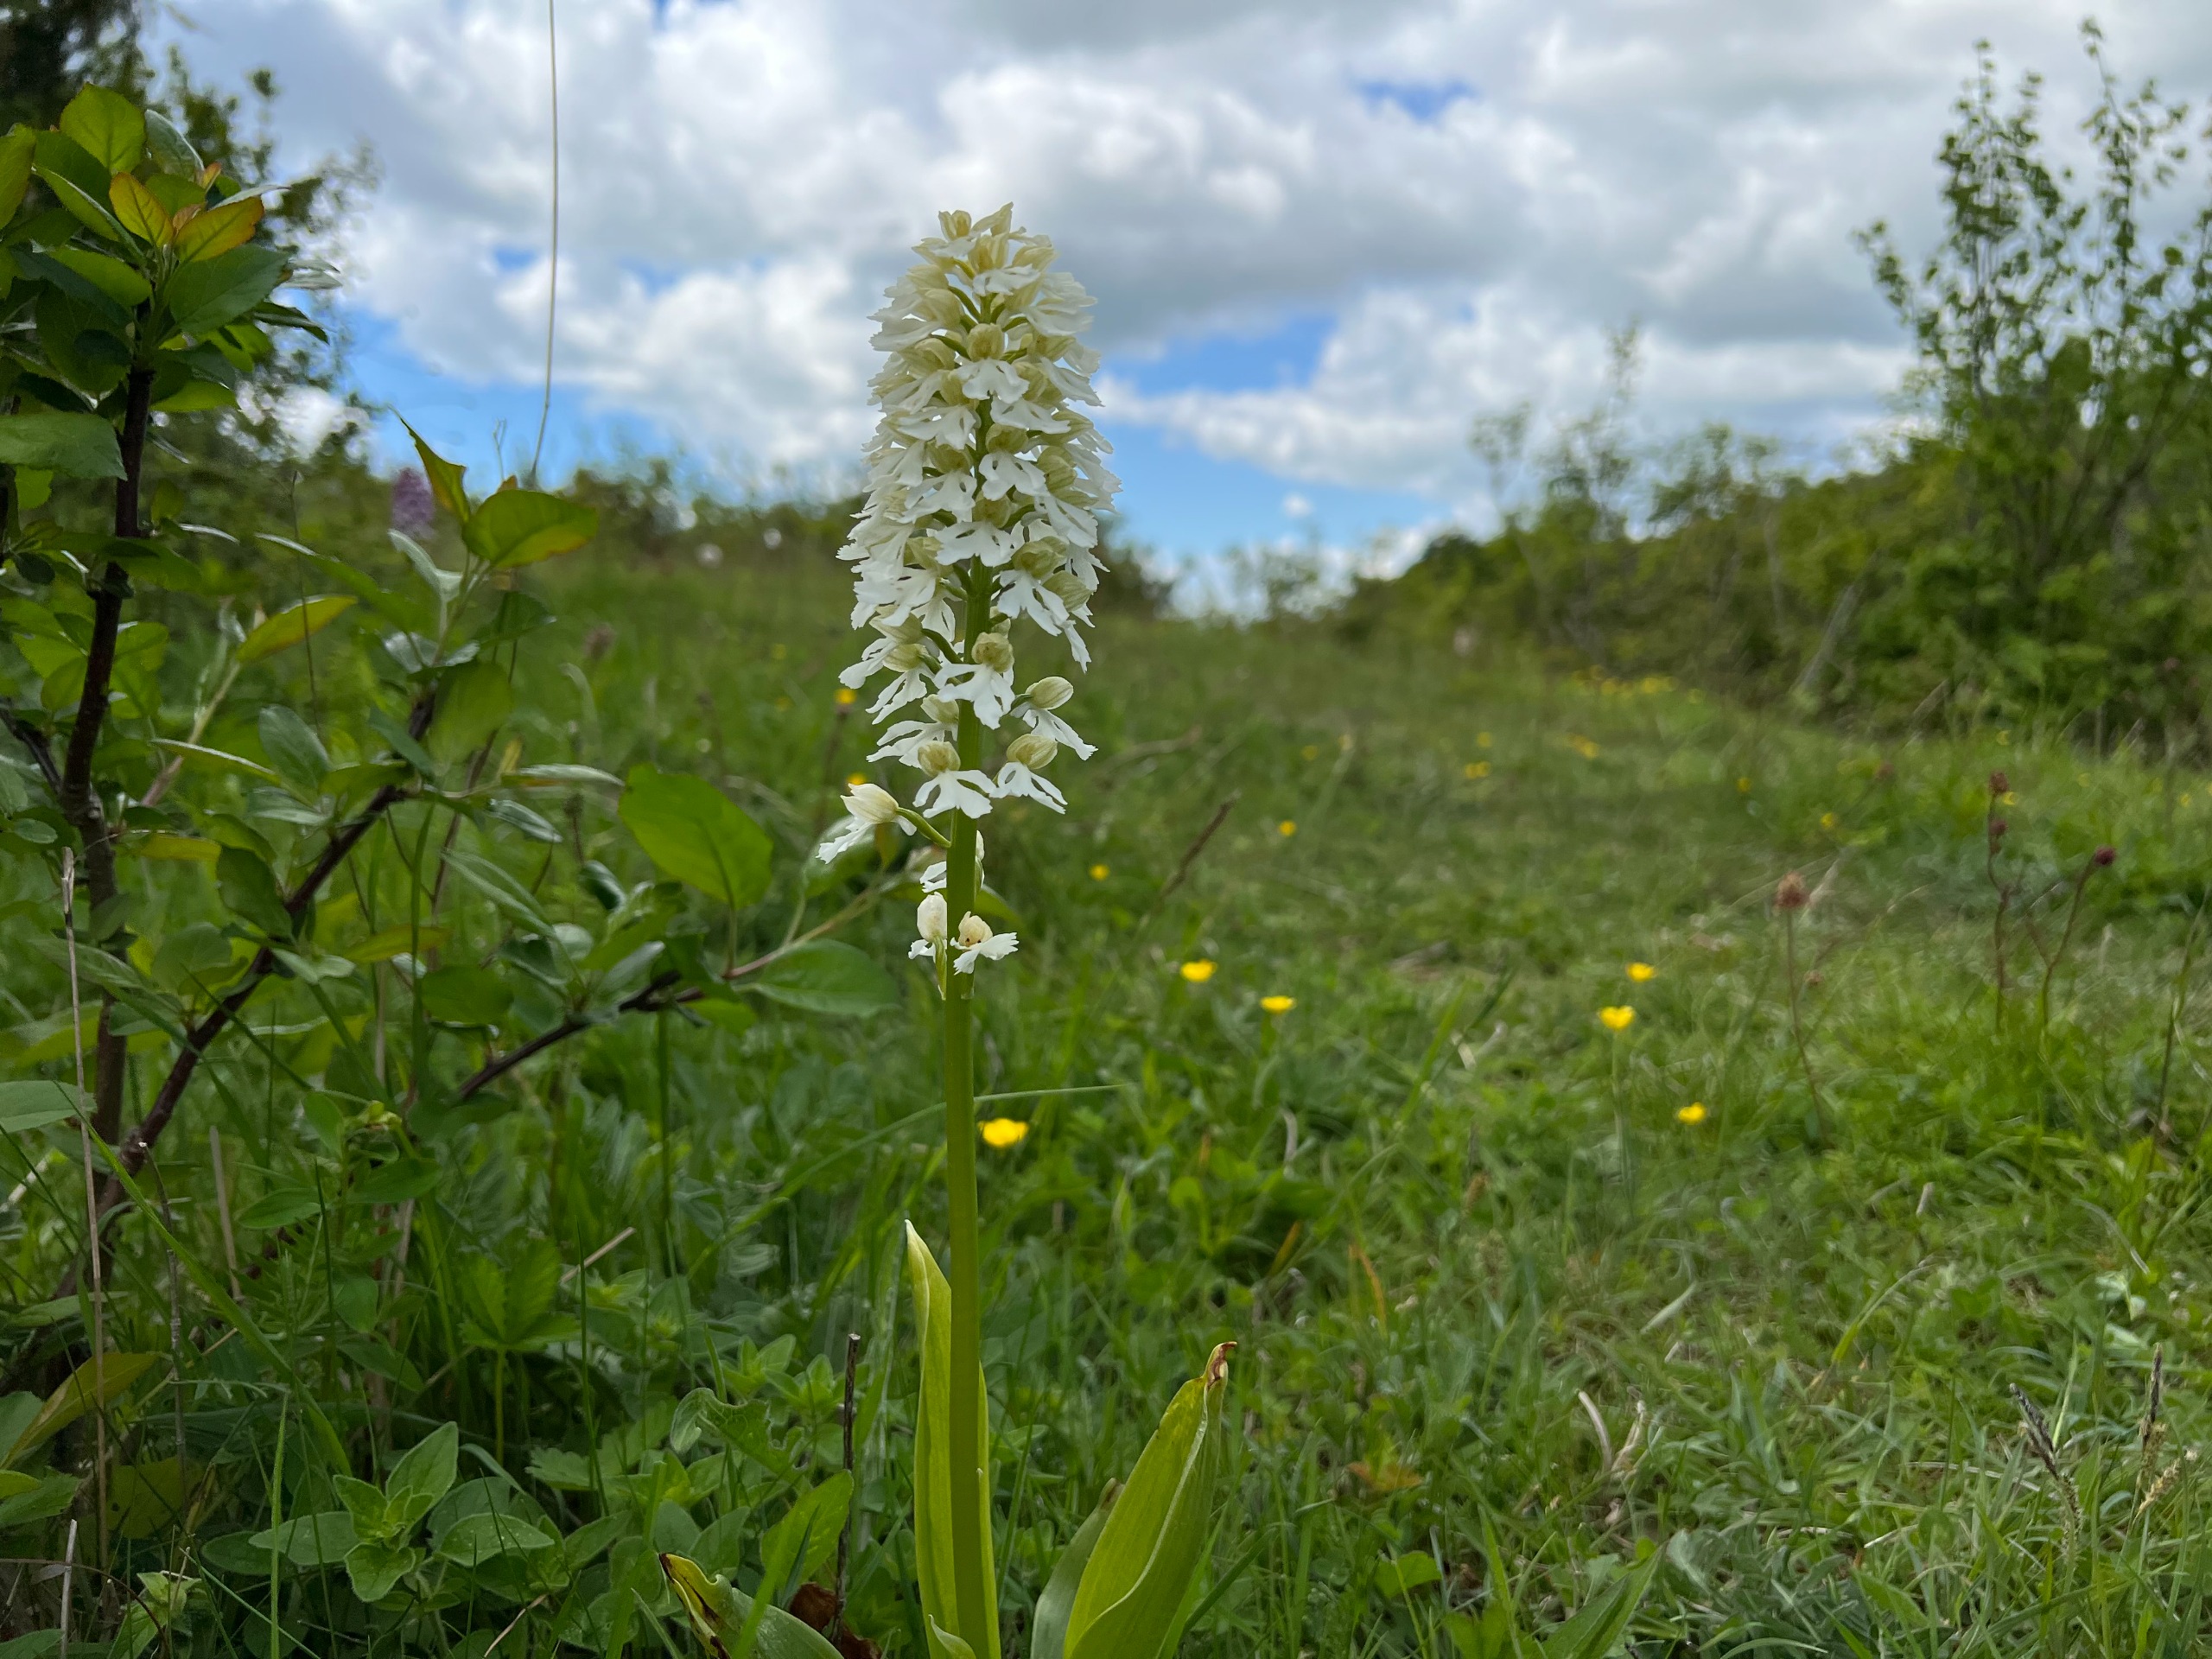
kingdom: Plantae
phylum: Tracheophyta
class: Liliopsida
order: Asparagales
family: Orchidaceae
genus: Orchis
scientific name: Orchis purpurea
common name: Stor gøgeurt
